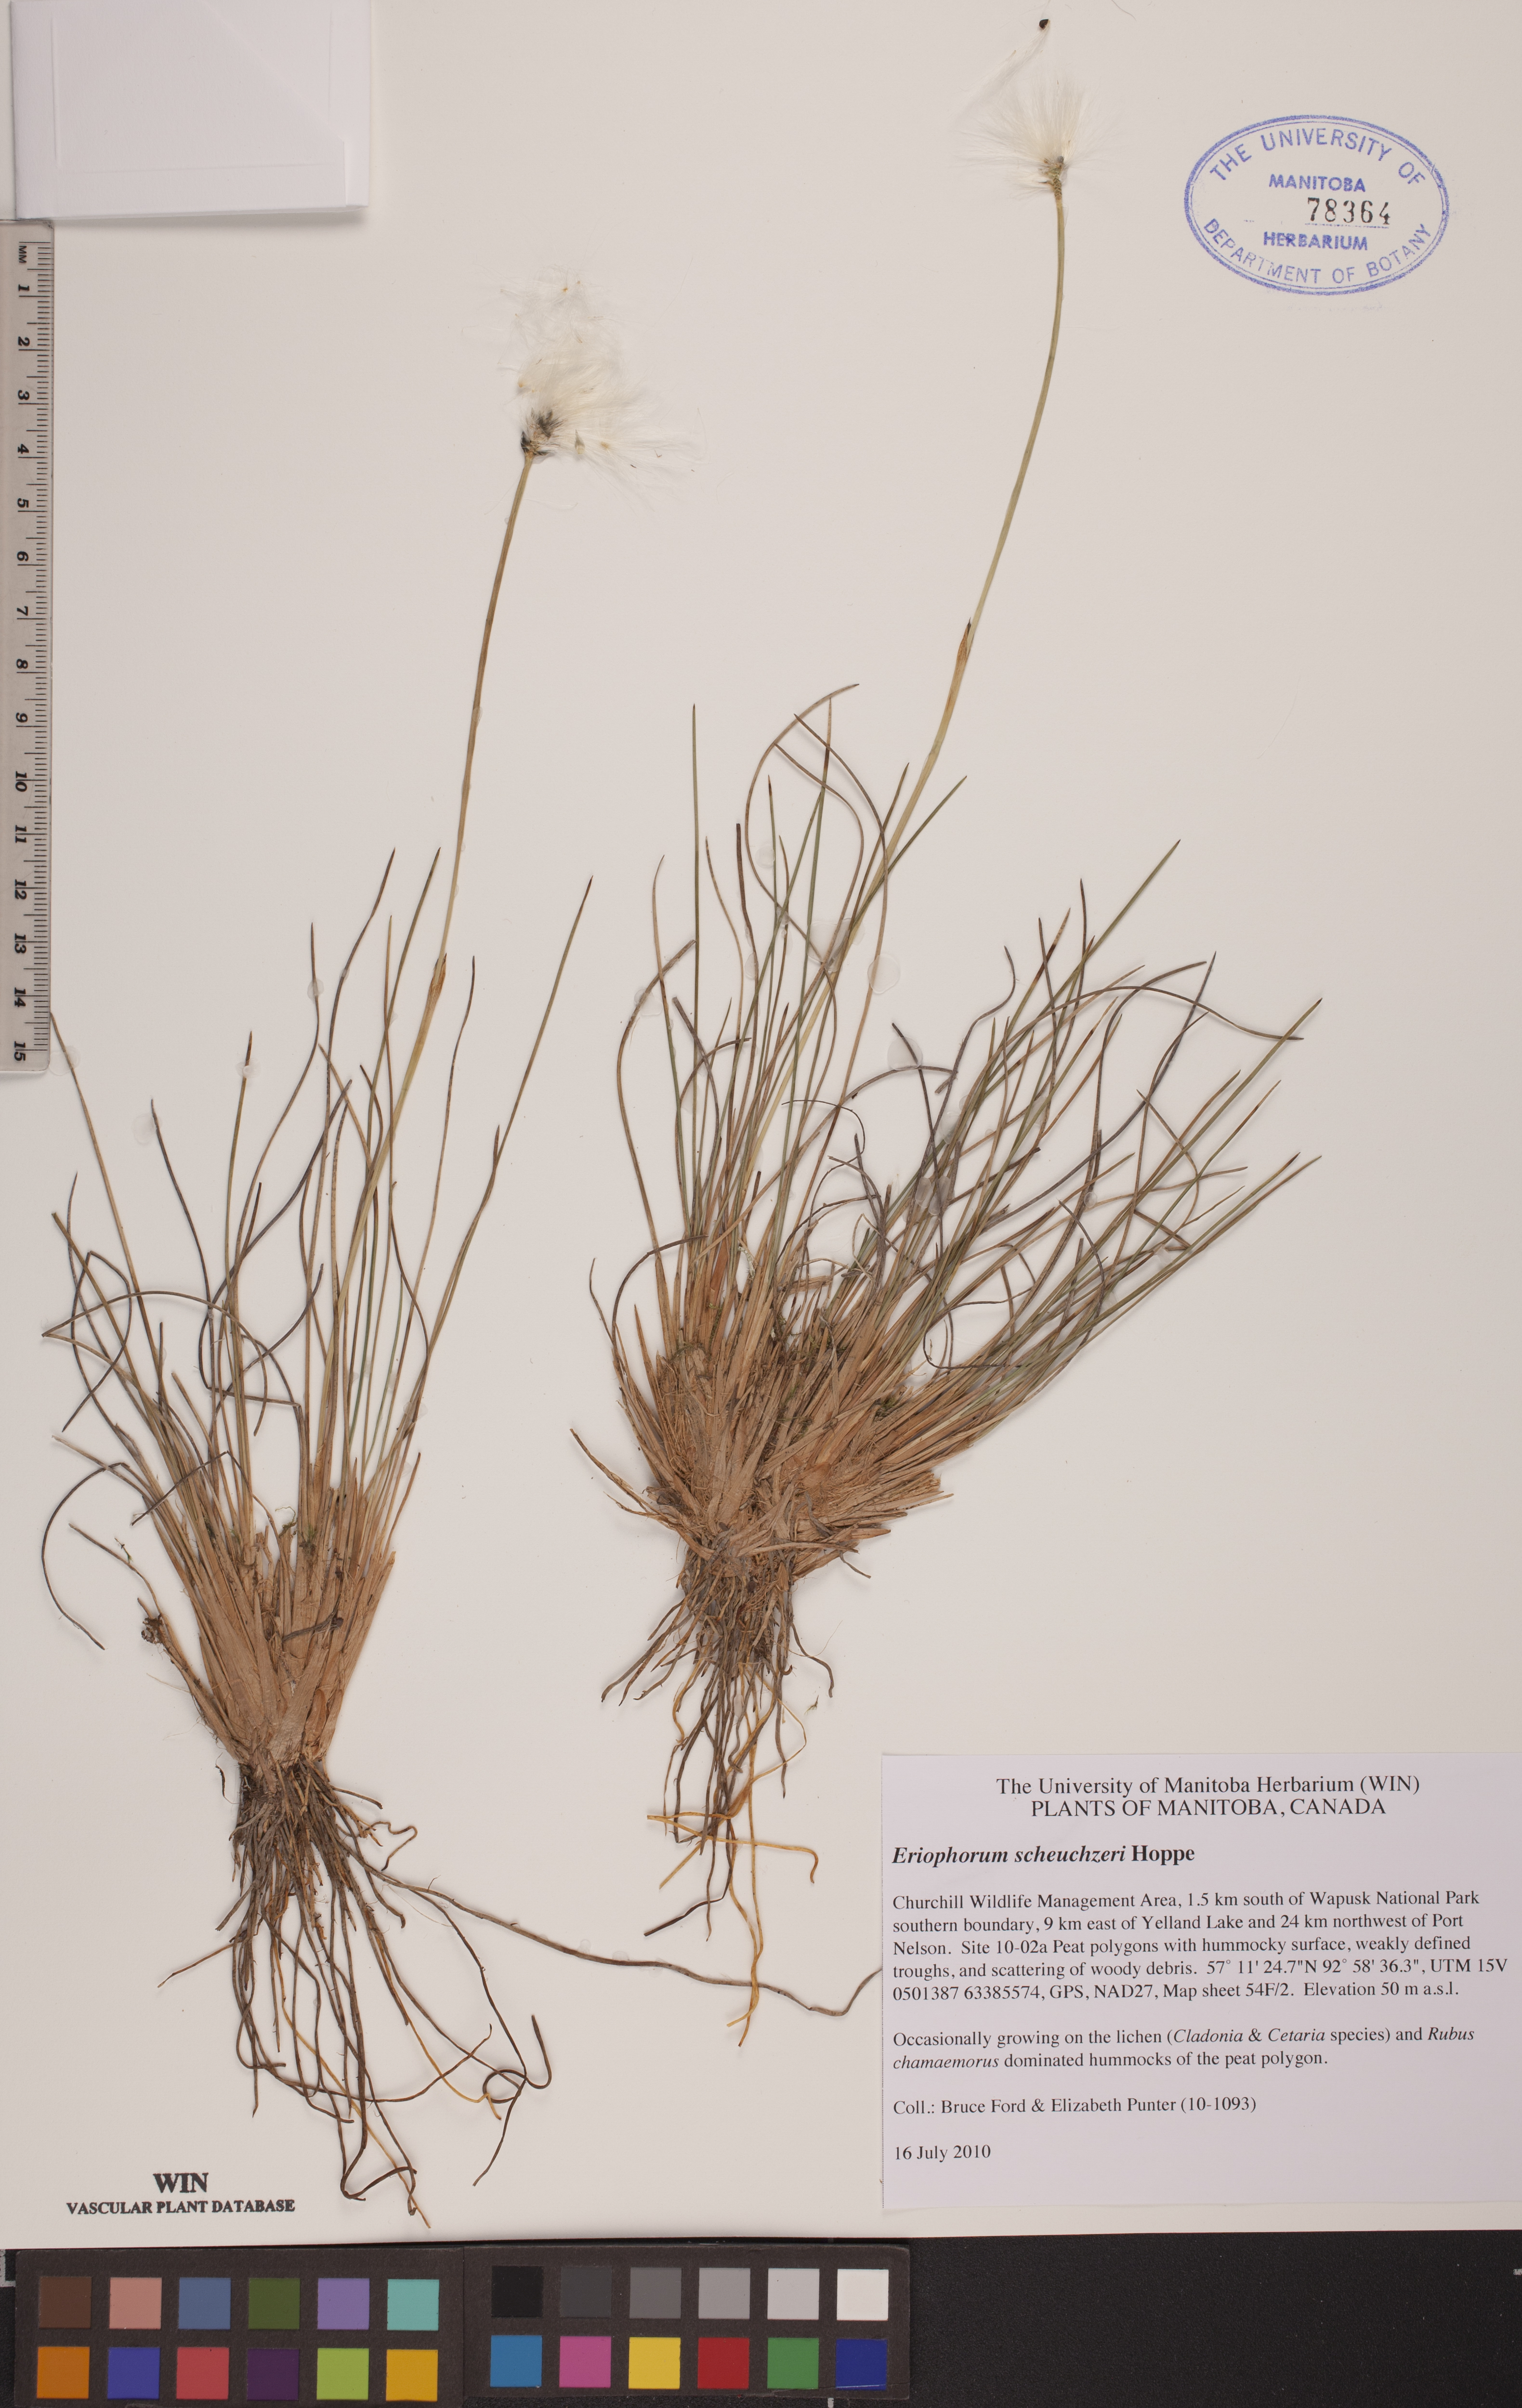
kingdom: Plantae
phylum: Tracheophyta
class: Liliopsida
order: Poales
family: Cyperaceae
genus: Eriophorum
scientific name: Eriophorum scheuchzeri
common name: Scheuchzer's cottongrass
